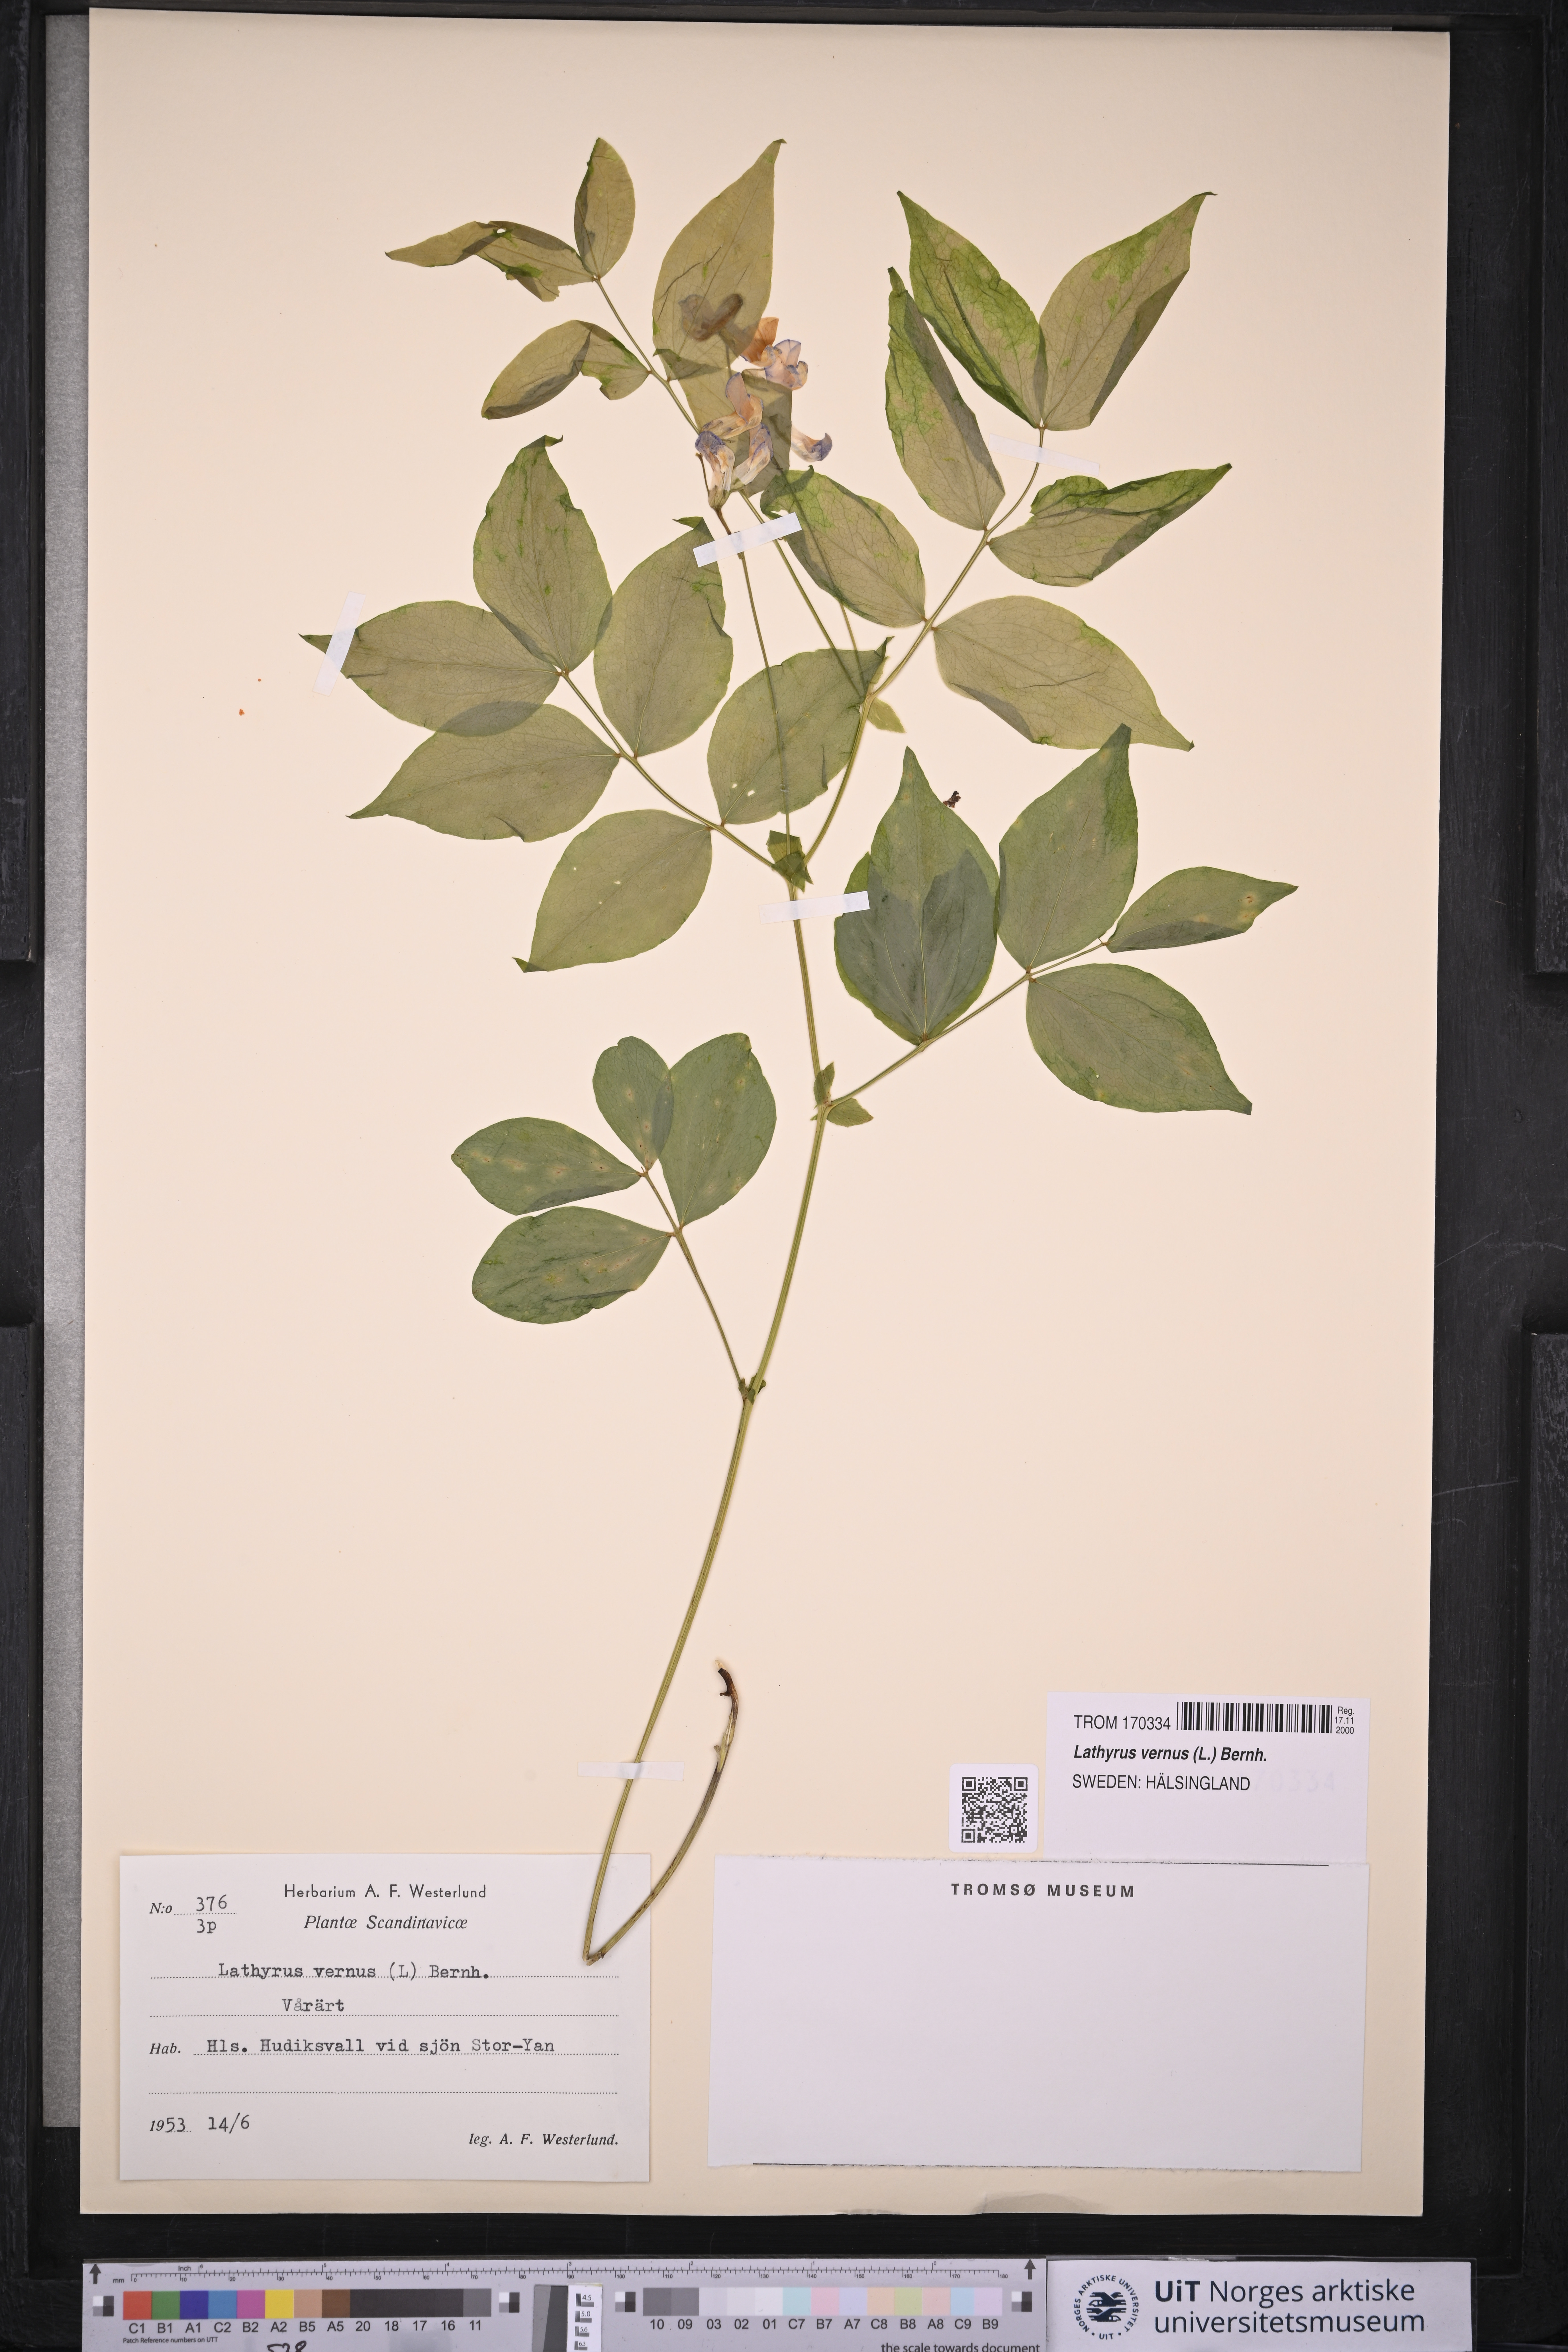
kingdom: Plantae
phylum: Tracheophyta
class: Magnoliopsida
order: Fabales
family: Fabaceae
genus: Lathyrus
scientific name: Lathyrus vernus
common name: Spring pea
